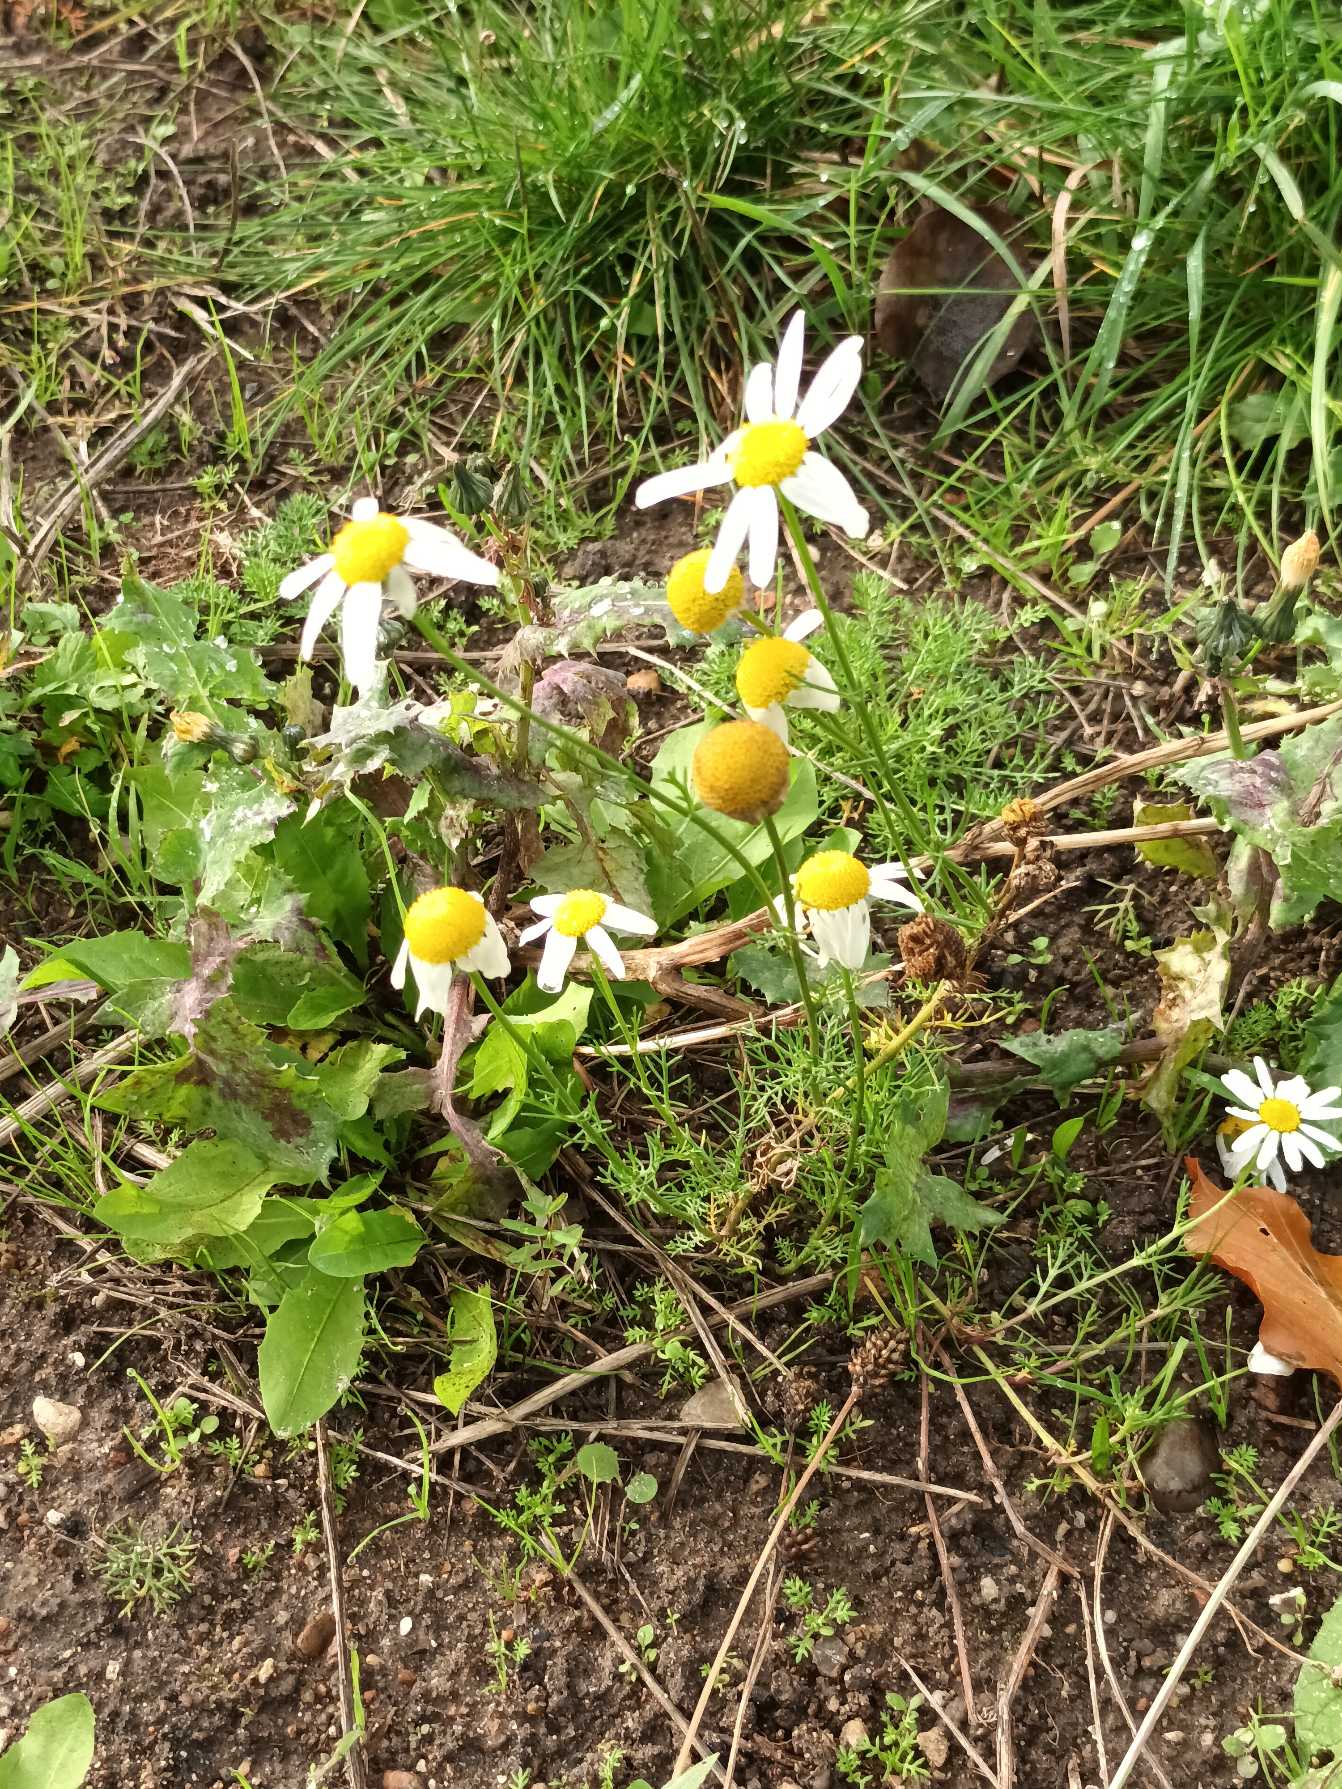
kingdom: Plantae
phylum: Tracheophyta
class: Magnoliopsida
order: Asterales
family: Asteraceae
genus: Tripleurospermum
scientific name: Tripleurospermum inodorum
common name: Lugtløs kamille
